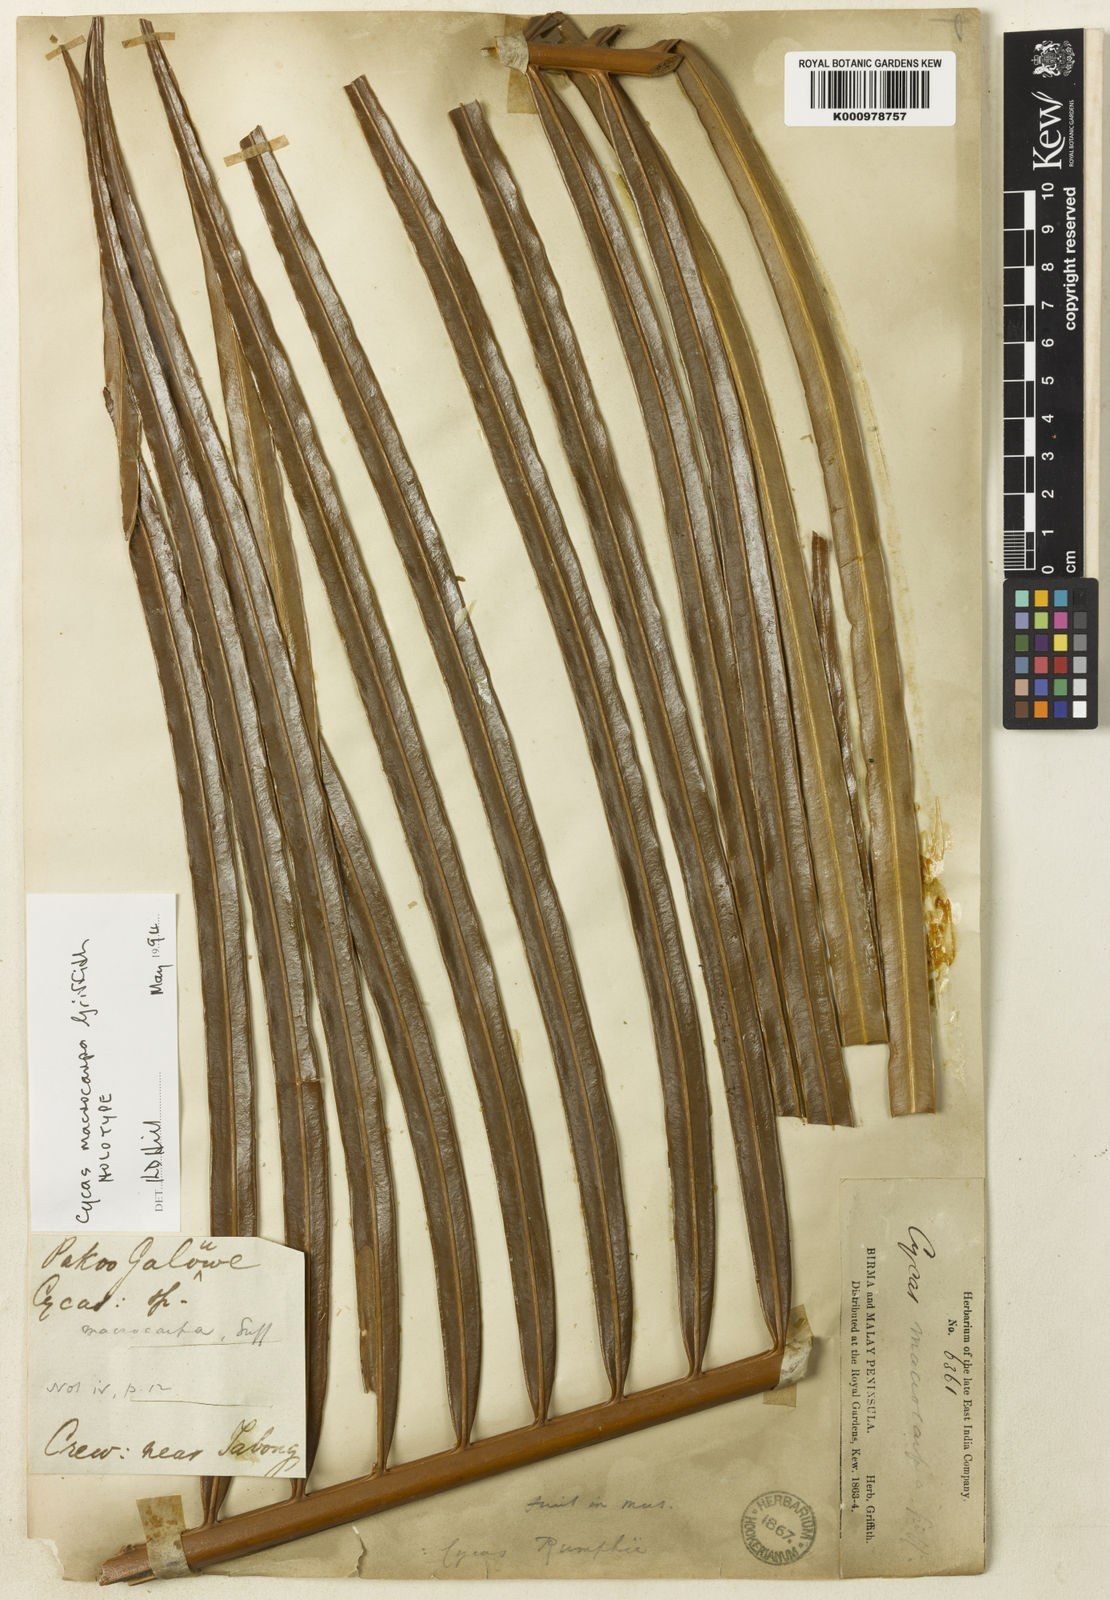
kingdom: Plantae
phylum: Tracheophyta
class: Cycadopsida
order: Cycadales
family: Cycadaceae
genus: Cycas
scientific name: Cycas macrocarpa
